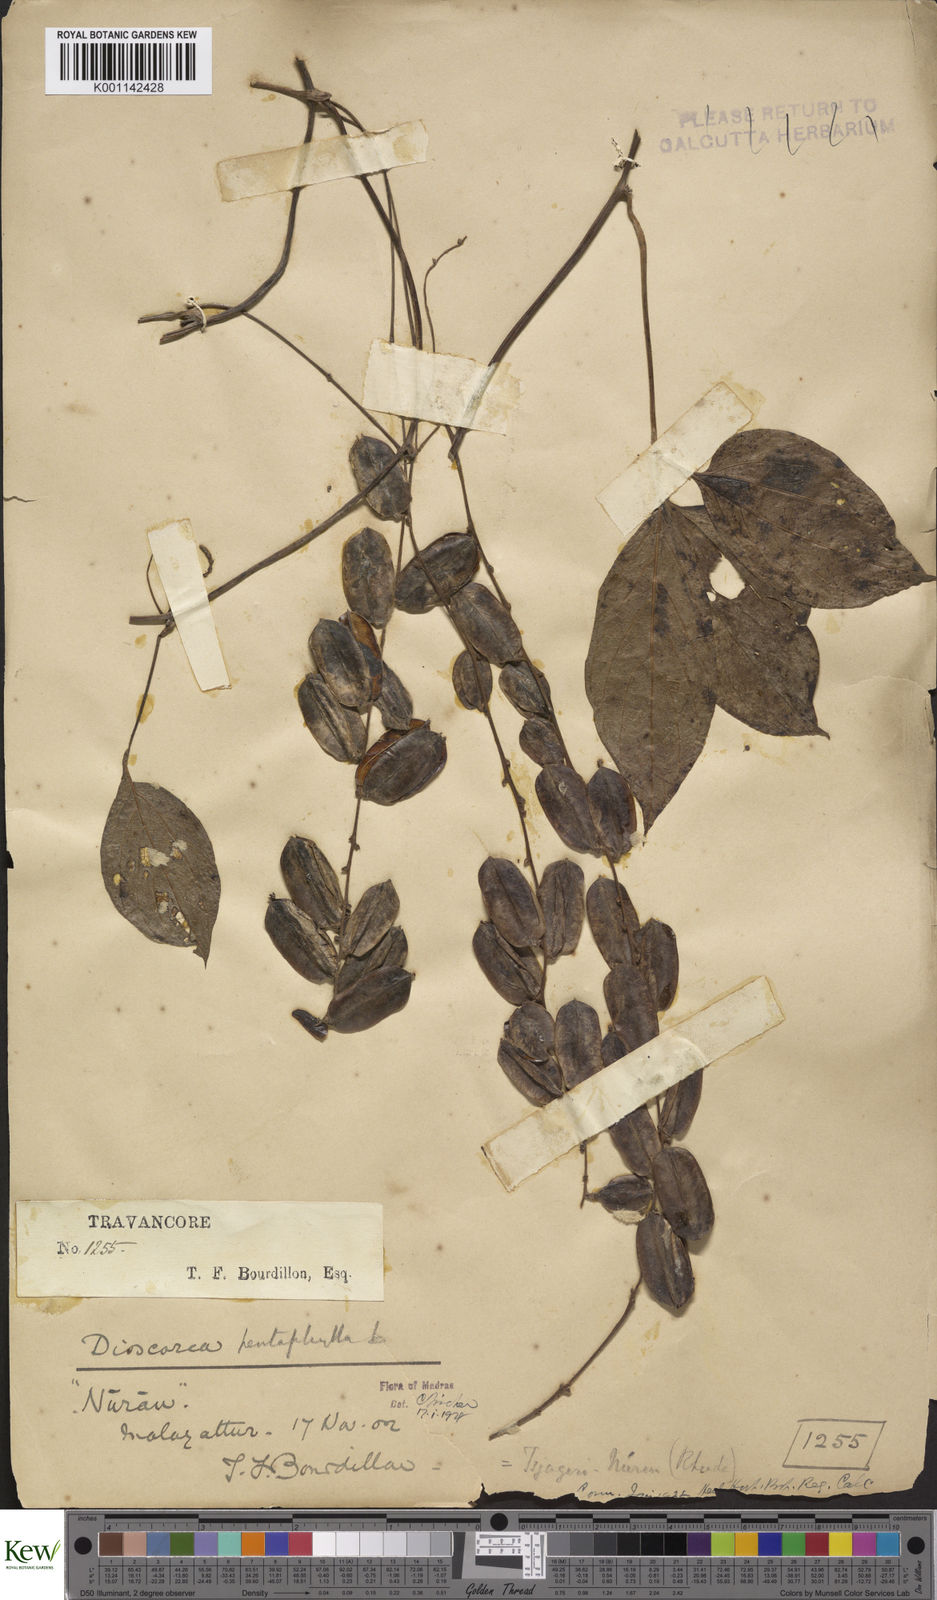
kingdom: Plantae
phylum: Tracheophyta
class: Liliopsida
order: Dioscoreales
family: Dioscoreaceae
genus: Dioscorea
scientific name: Dioscorea pentaphylla
